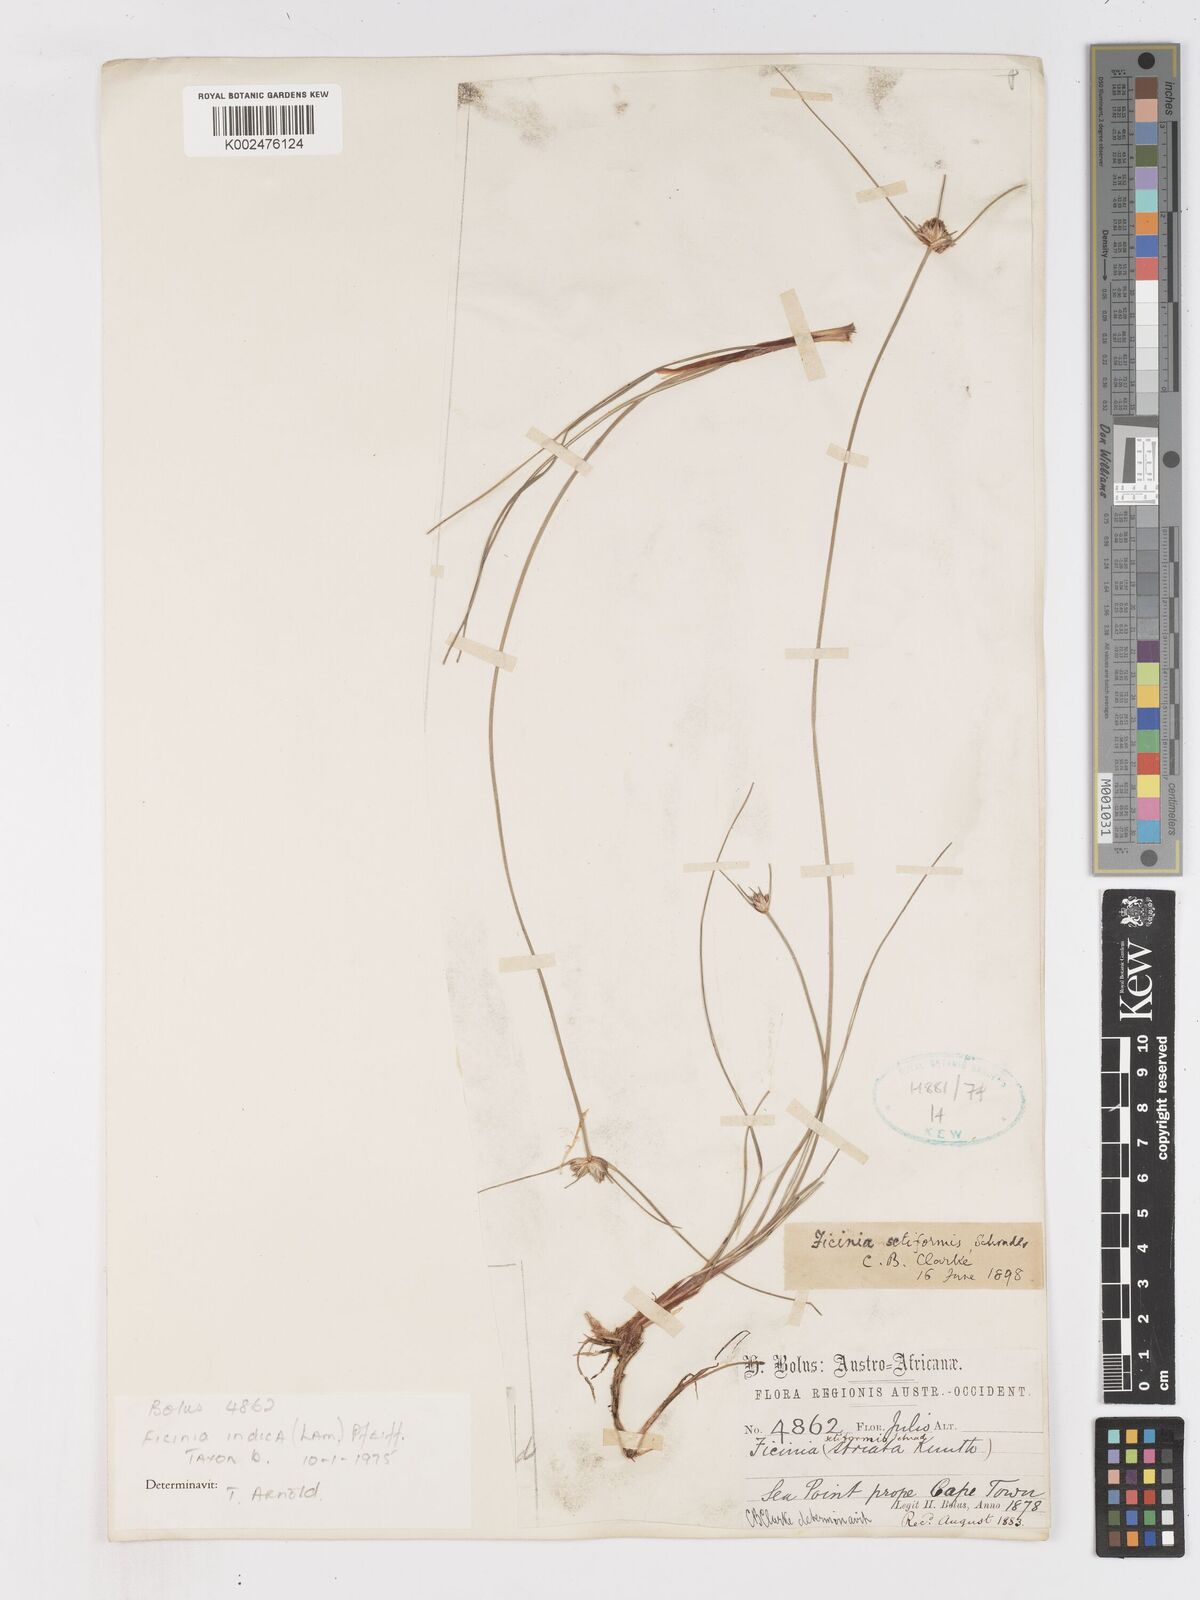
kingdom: Plantae
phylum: Tracheophyta
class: Liliopsida
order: Poales
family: Cyperaceae
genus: Ficinia
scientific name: Ficinia indica
